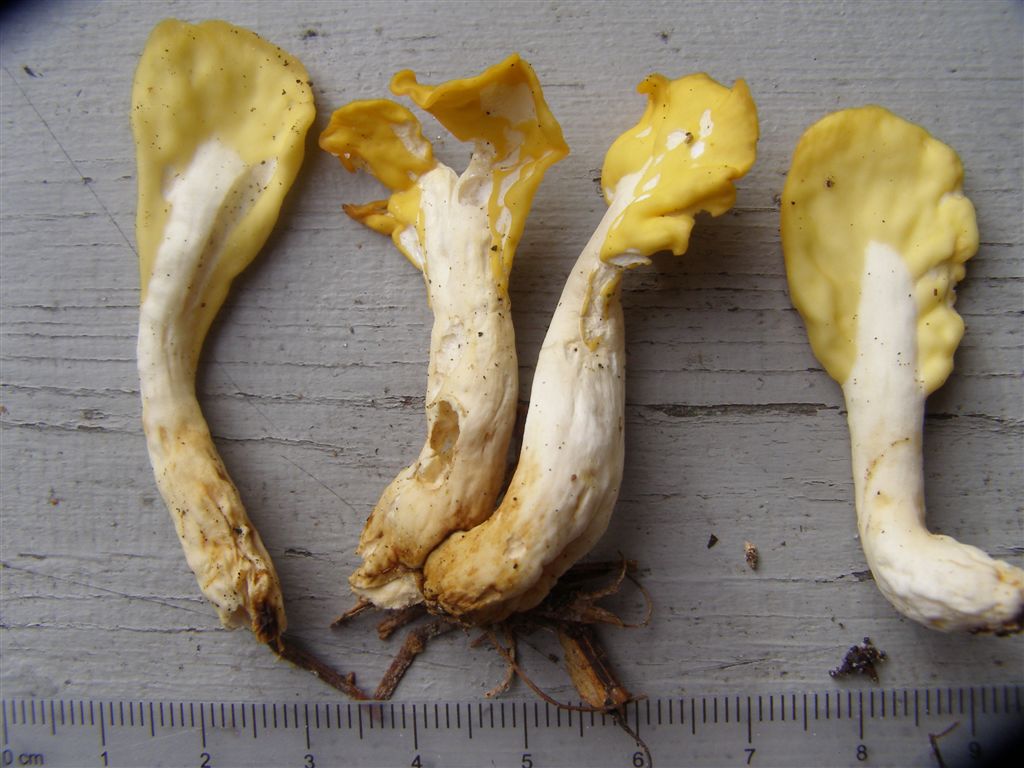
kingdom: Fungi
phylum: Ascomycota
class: Leotiomycetes
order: Rhytismatales
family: Cudoniaceae
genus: Spathularia
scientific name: Spathularia flavida
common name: gul spatelsvamp
